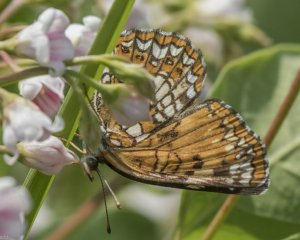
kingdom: Animalia
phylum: Arthropoda
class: Insecta
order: Lepidoptera
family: Nymphalidae
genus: Chlosyne
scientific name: Chlosyne harrisii
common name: Harris's Checkerspot
